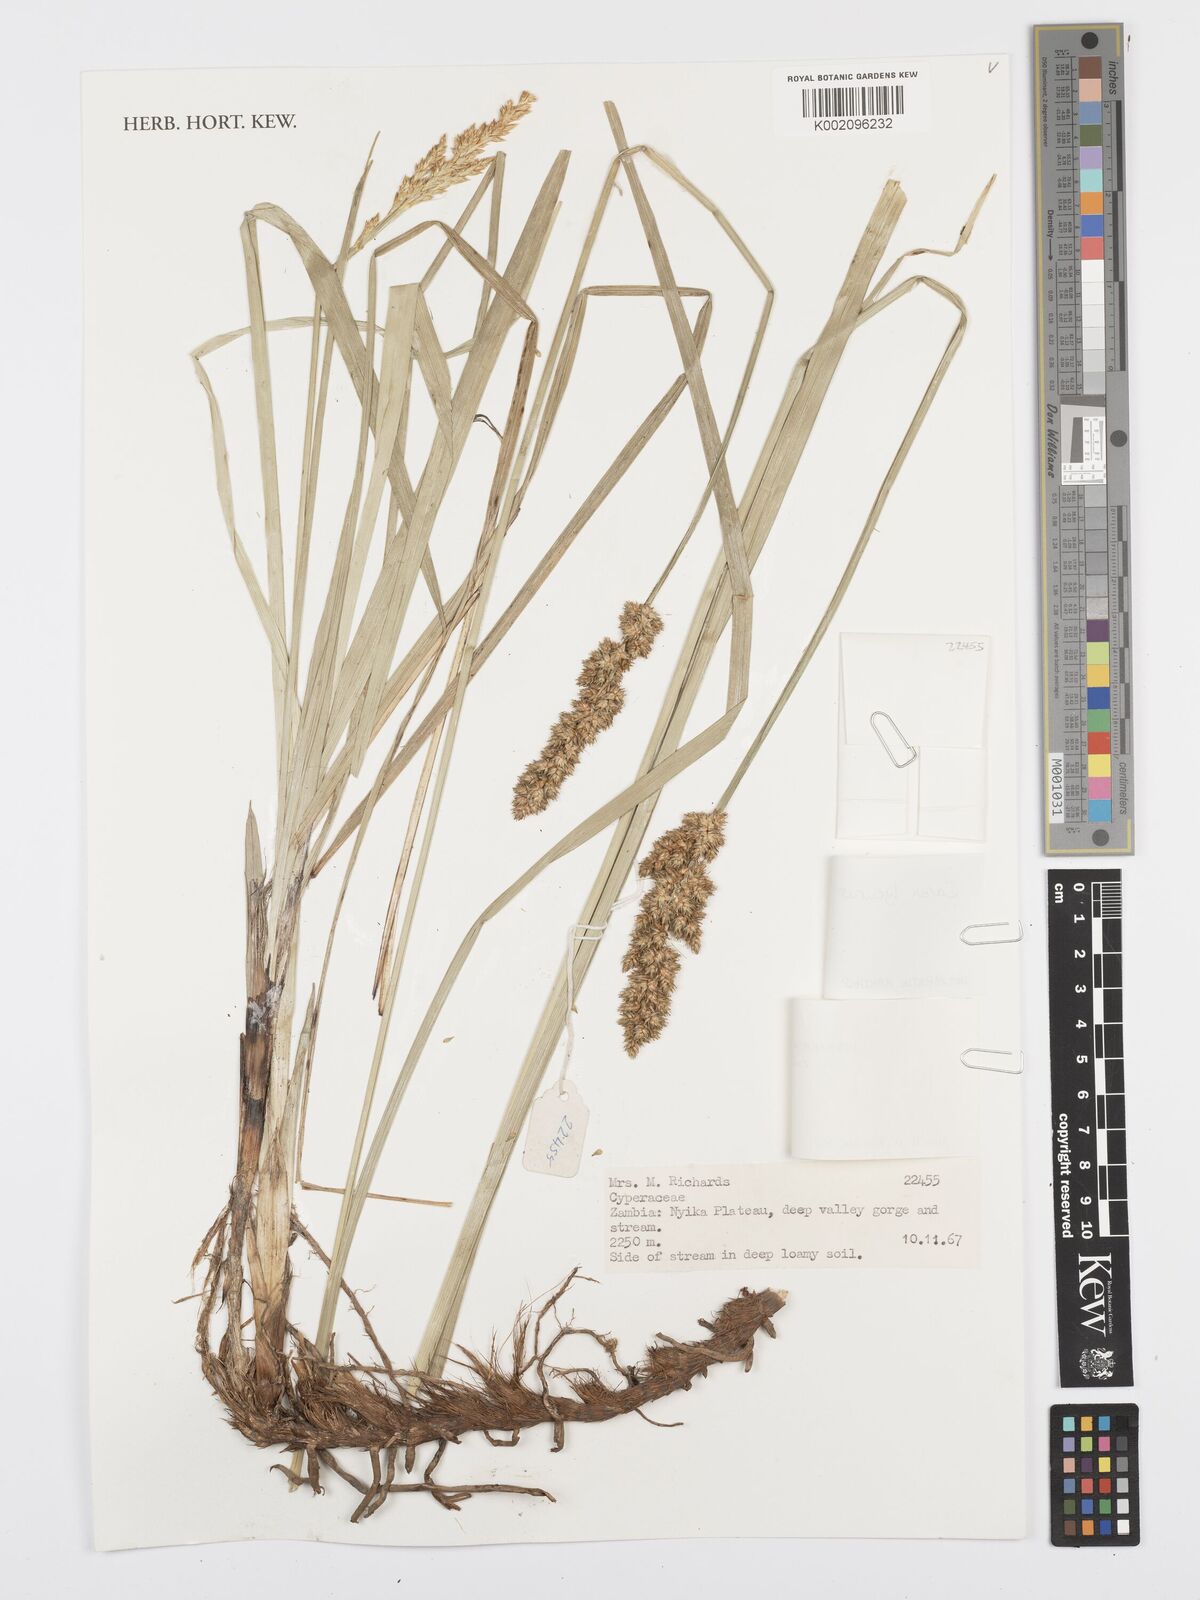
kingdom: Plantae
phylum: Tracheophyta
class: Liliopsida
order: Poales
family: Cyperaceae
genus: Carex
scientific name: Carex lycurus
